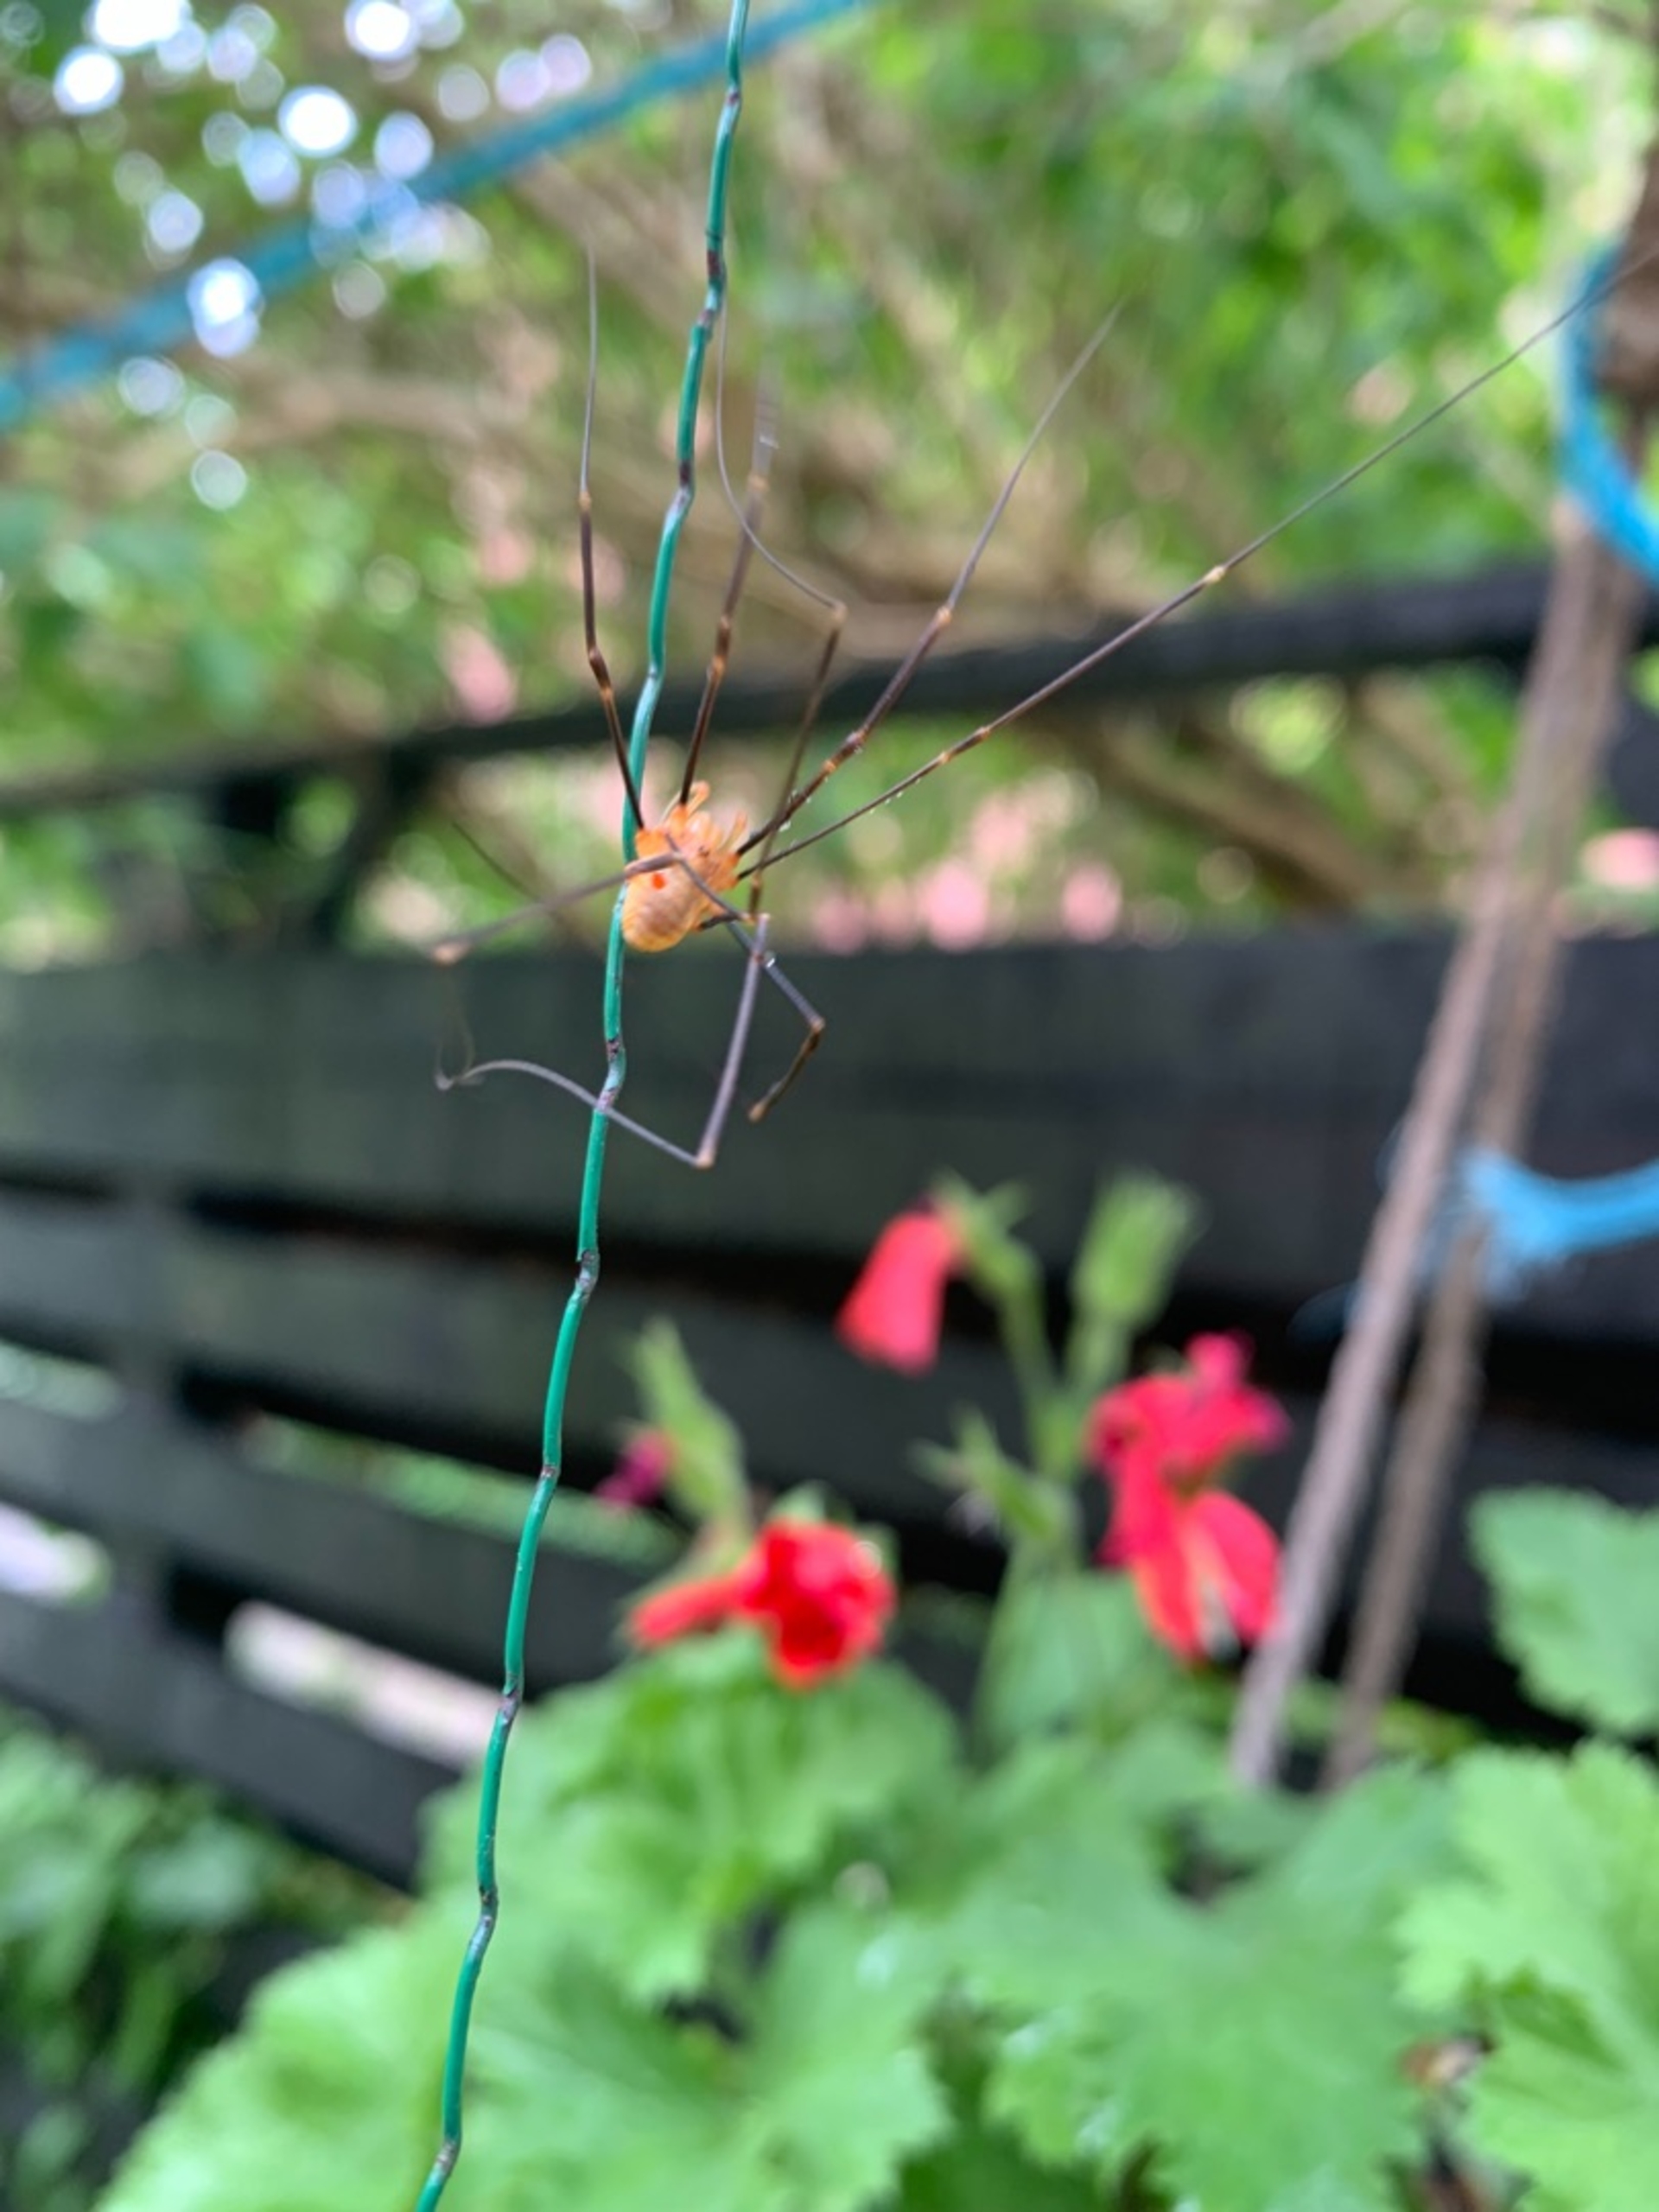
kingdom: Animalia
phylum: Arthropoda
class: Arachnida
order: Opiliones
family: Phalangiidae
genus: Opilio
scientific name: Opilio canestrinii
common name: Orange vægmejer
